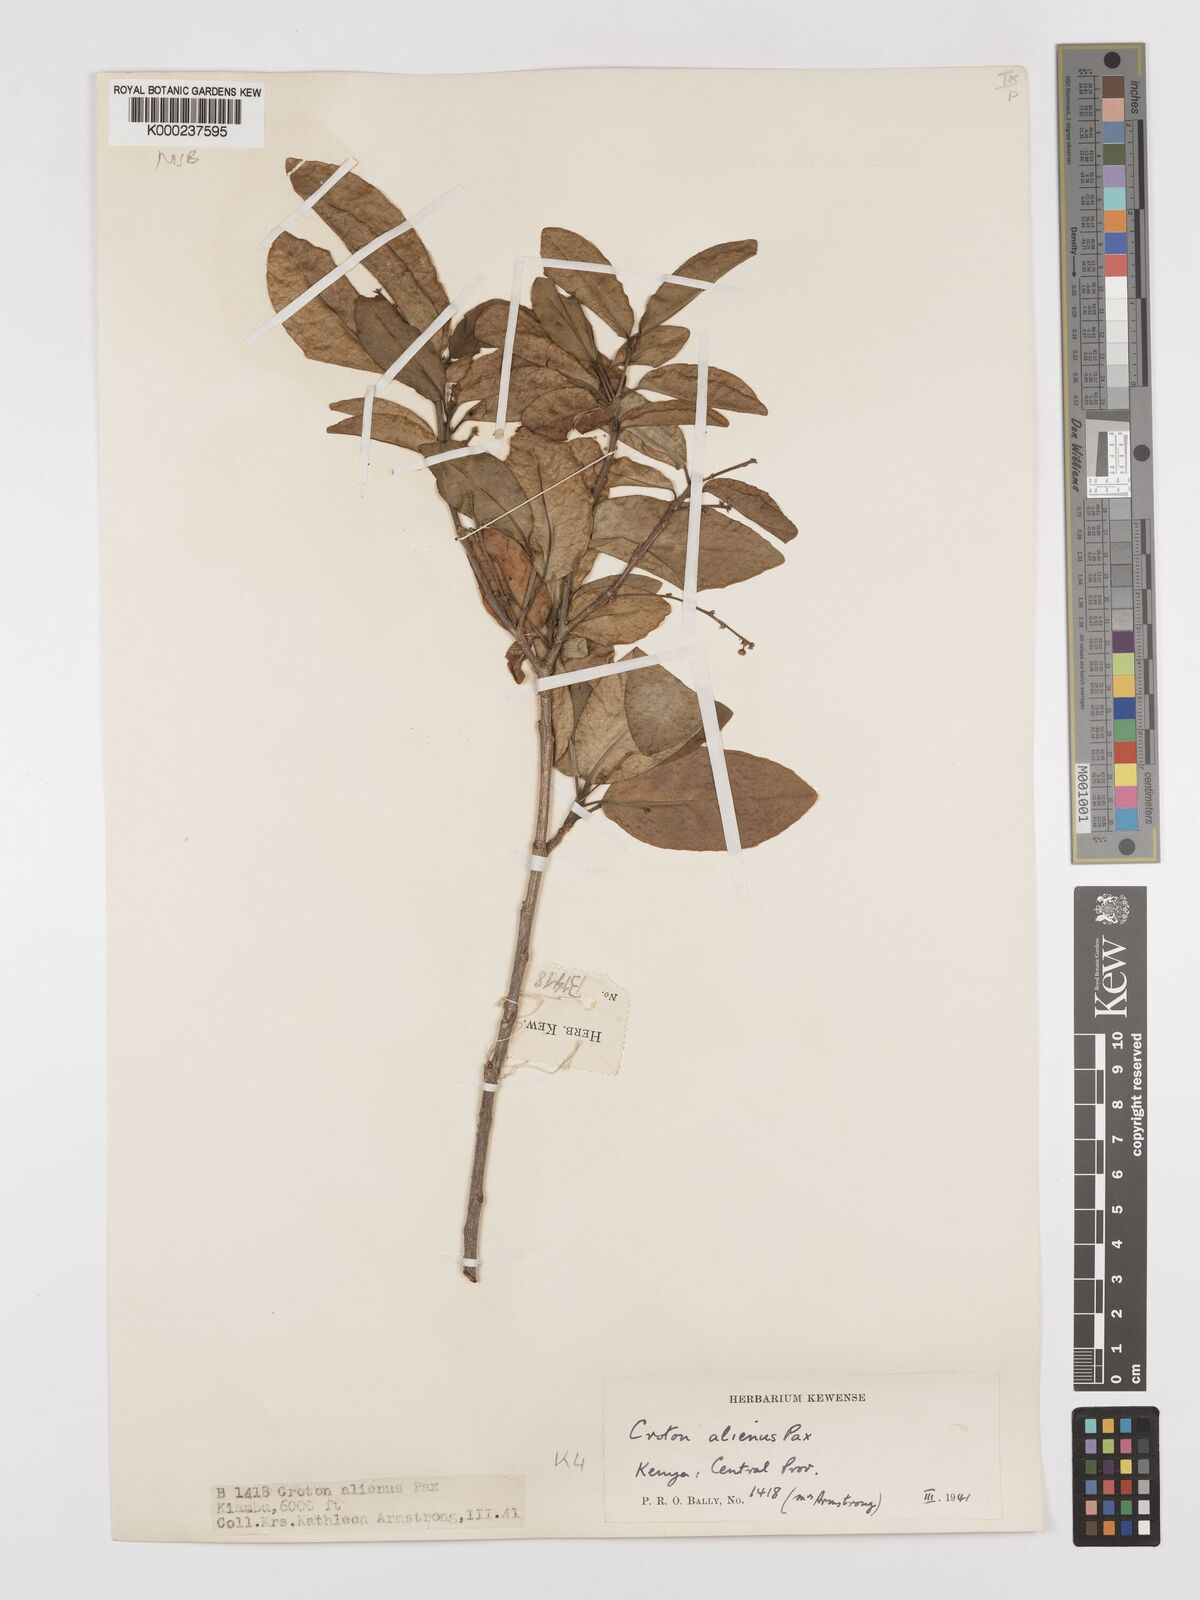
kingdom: Plantae
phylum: Tracheophyta
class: Magnoliopsida
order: Malpighiales
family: Euphorbiaceae
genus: Croton
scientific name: Croton alienus
